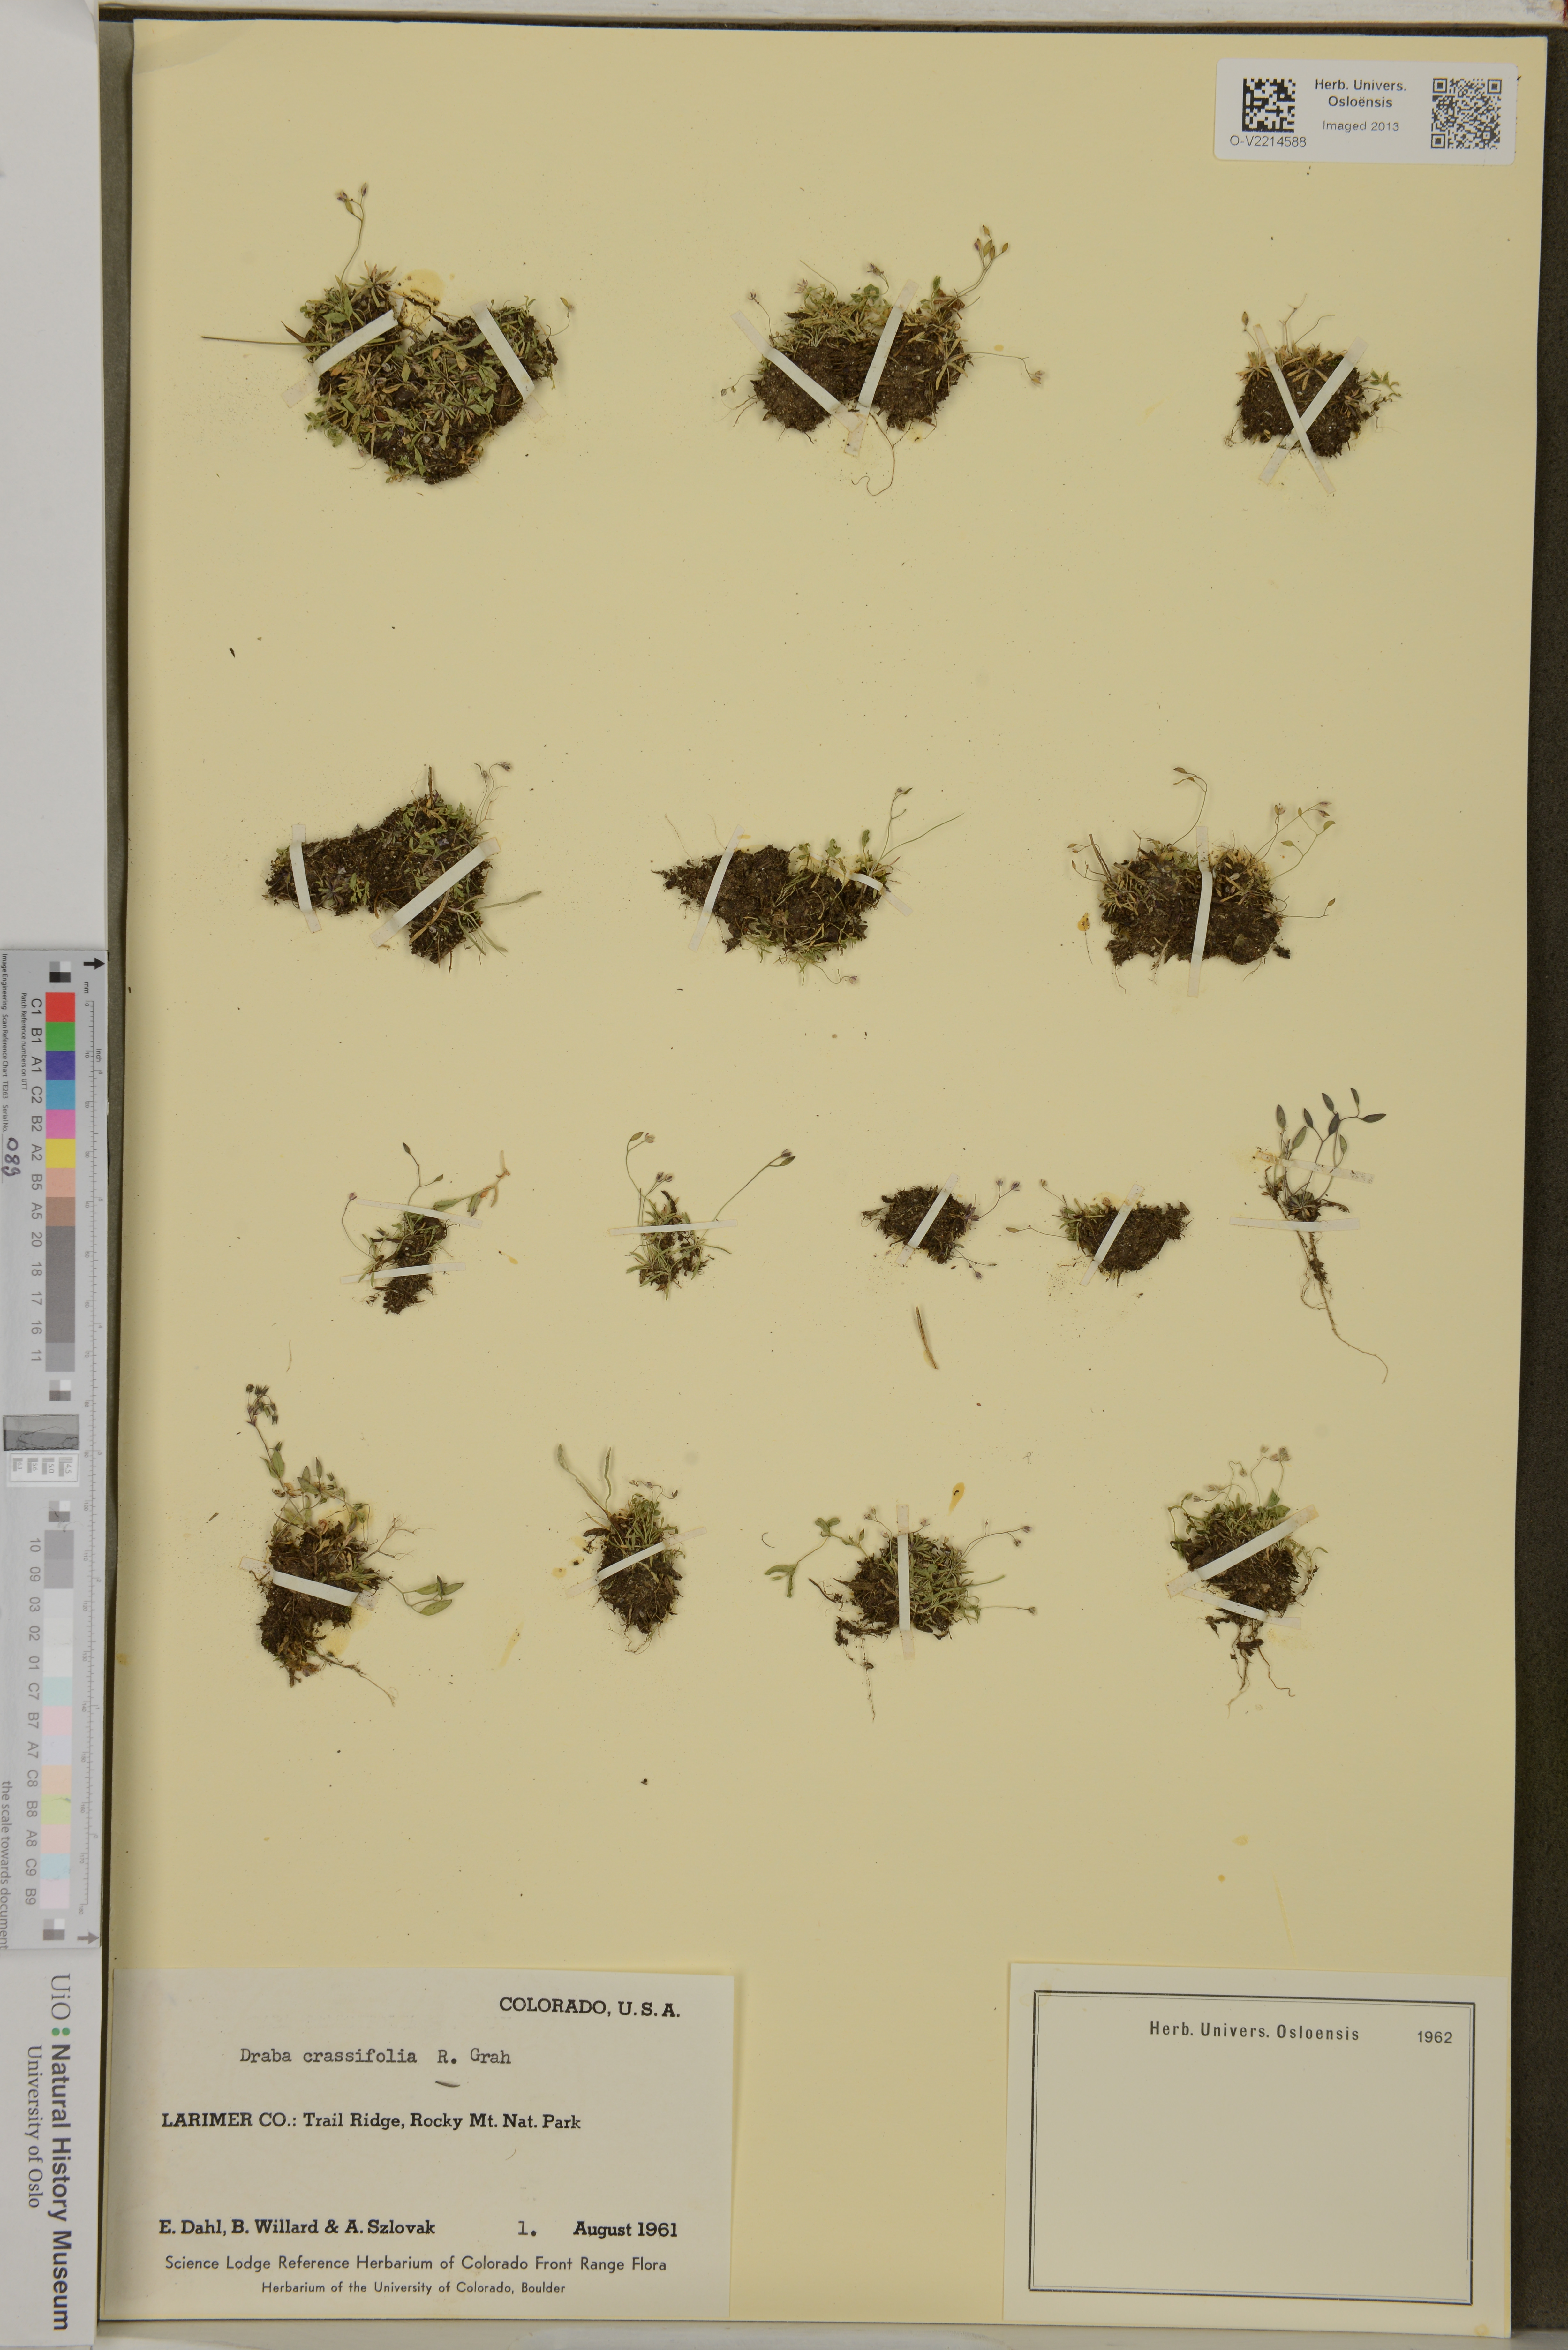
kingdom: Plantae
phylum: Tracheophyta
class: Magnoliopsida
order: Brassicales
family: Brassicaceae
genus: Draba
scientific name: Draba crassifolia
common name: Rocky mountain draba
